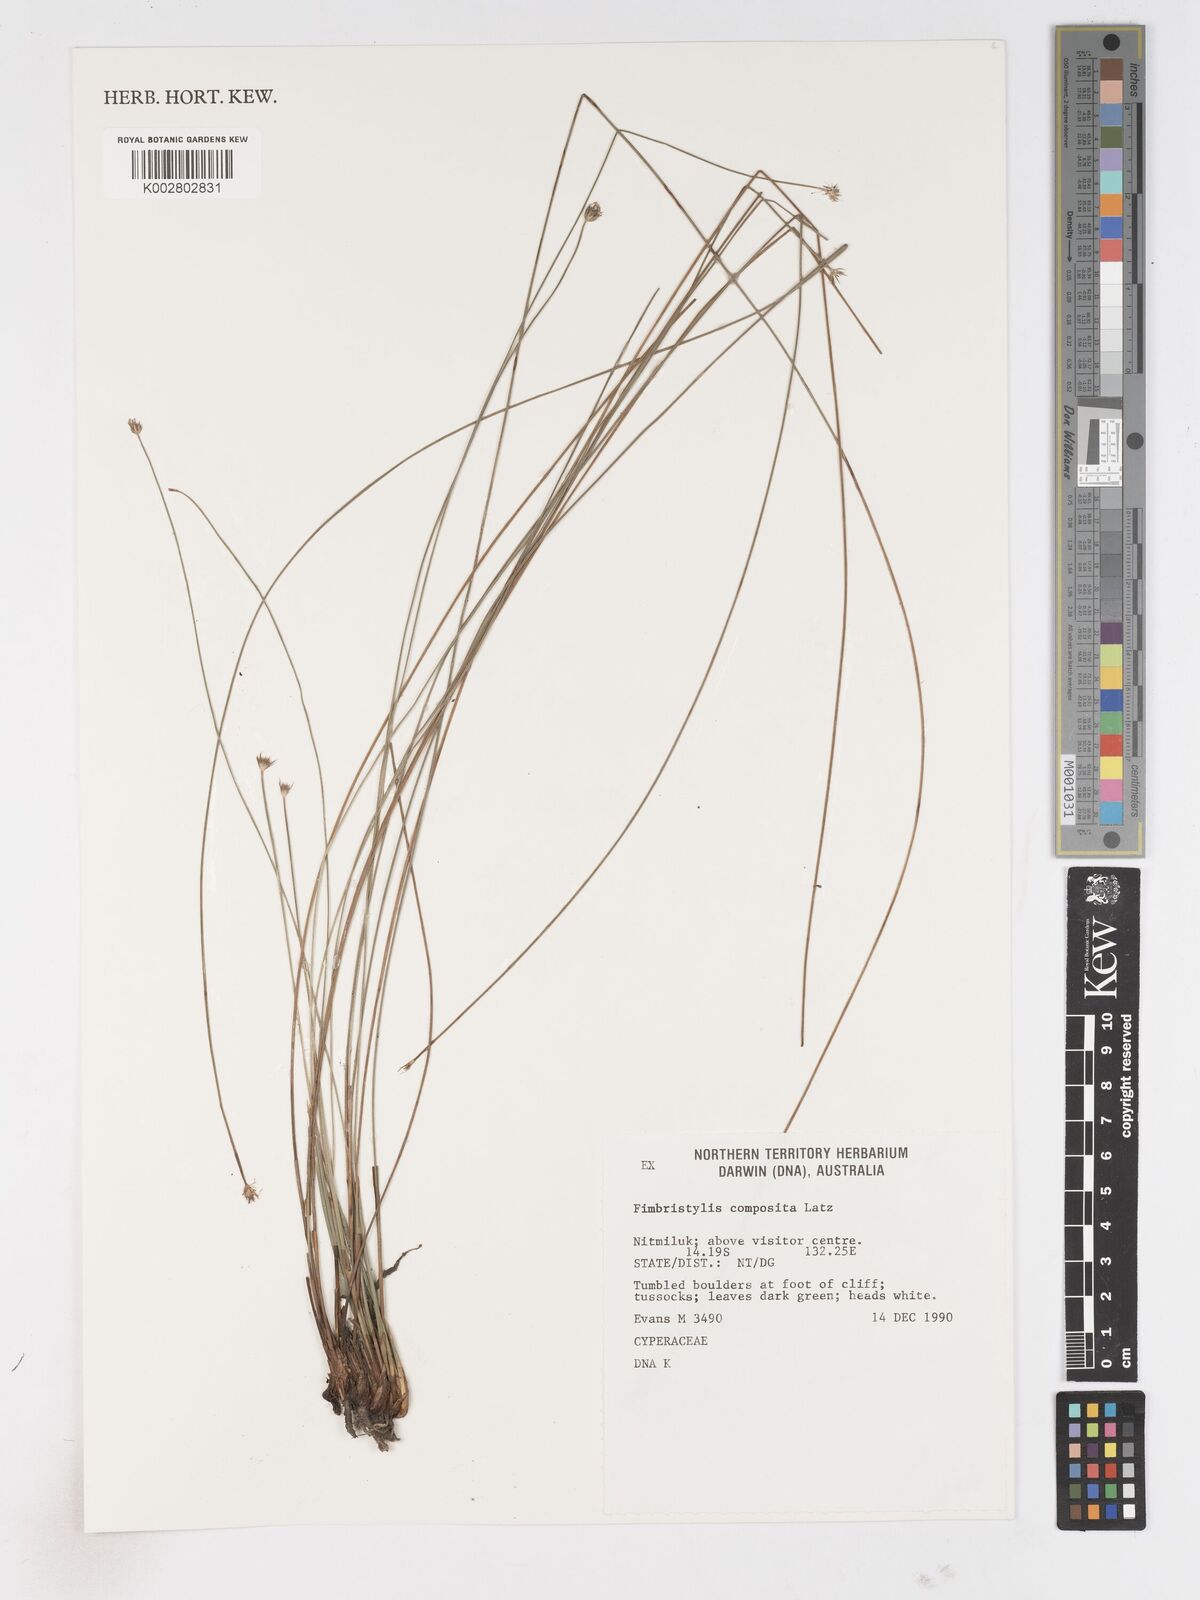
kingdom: Plantae
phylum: Tracheophyta
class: Liliopsida
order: Poales
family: Cyperaceae
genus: Scleroschoenus
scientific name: Scleroschoenus compositus
